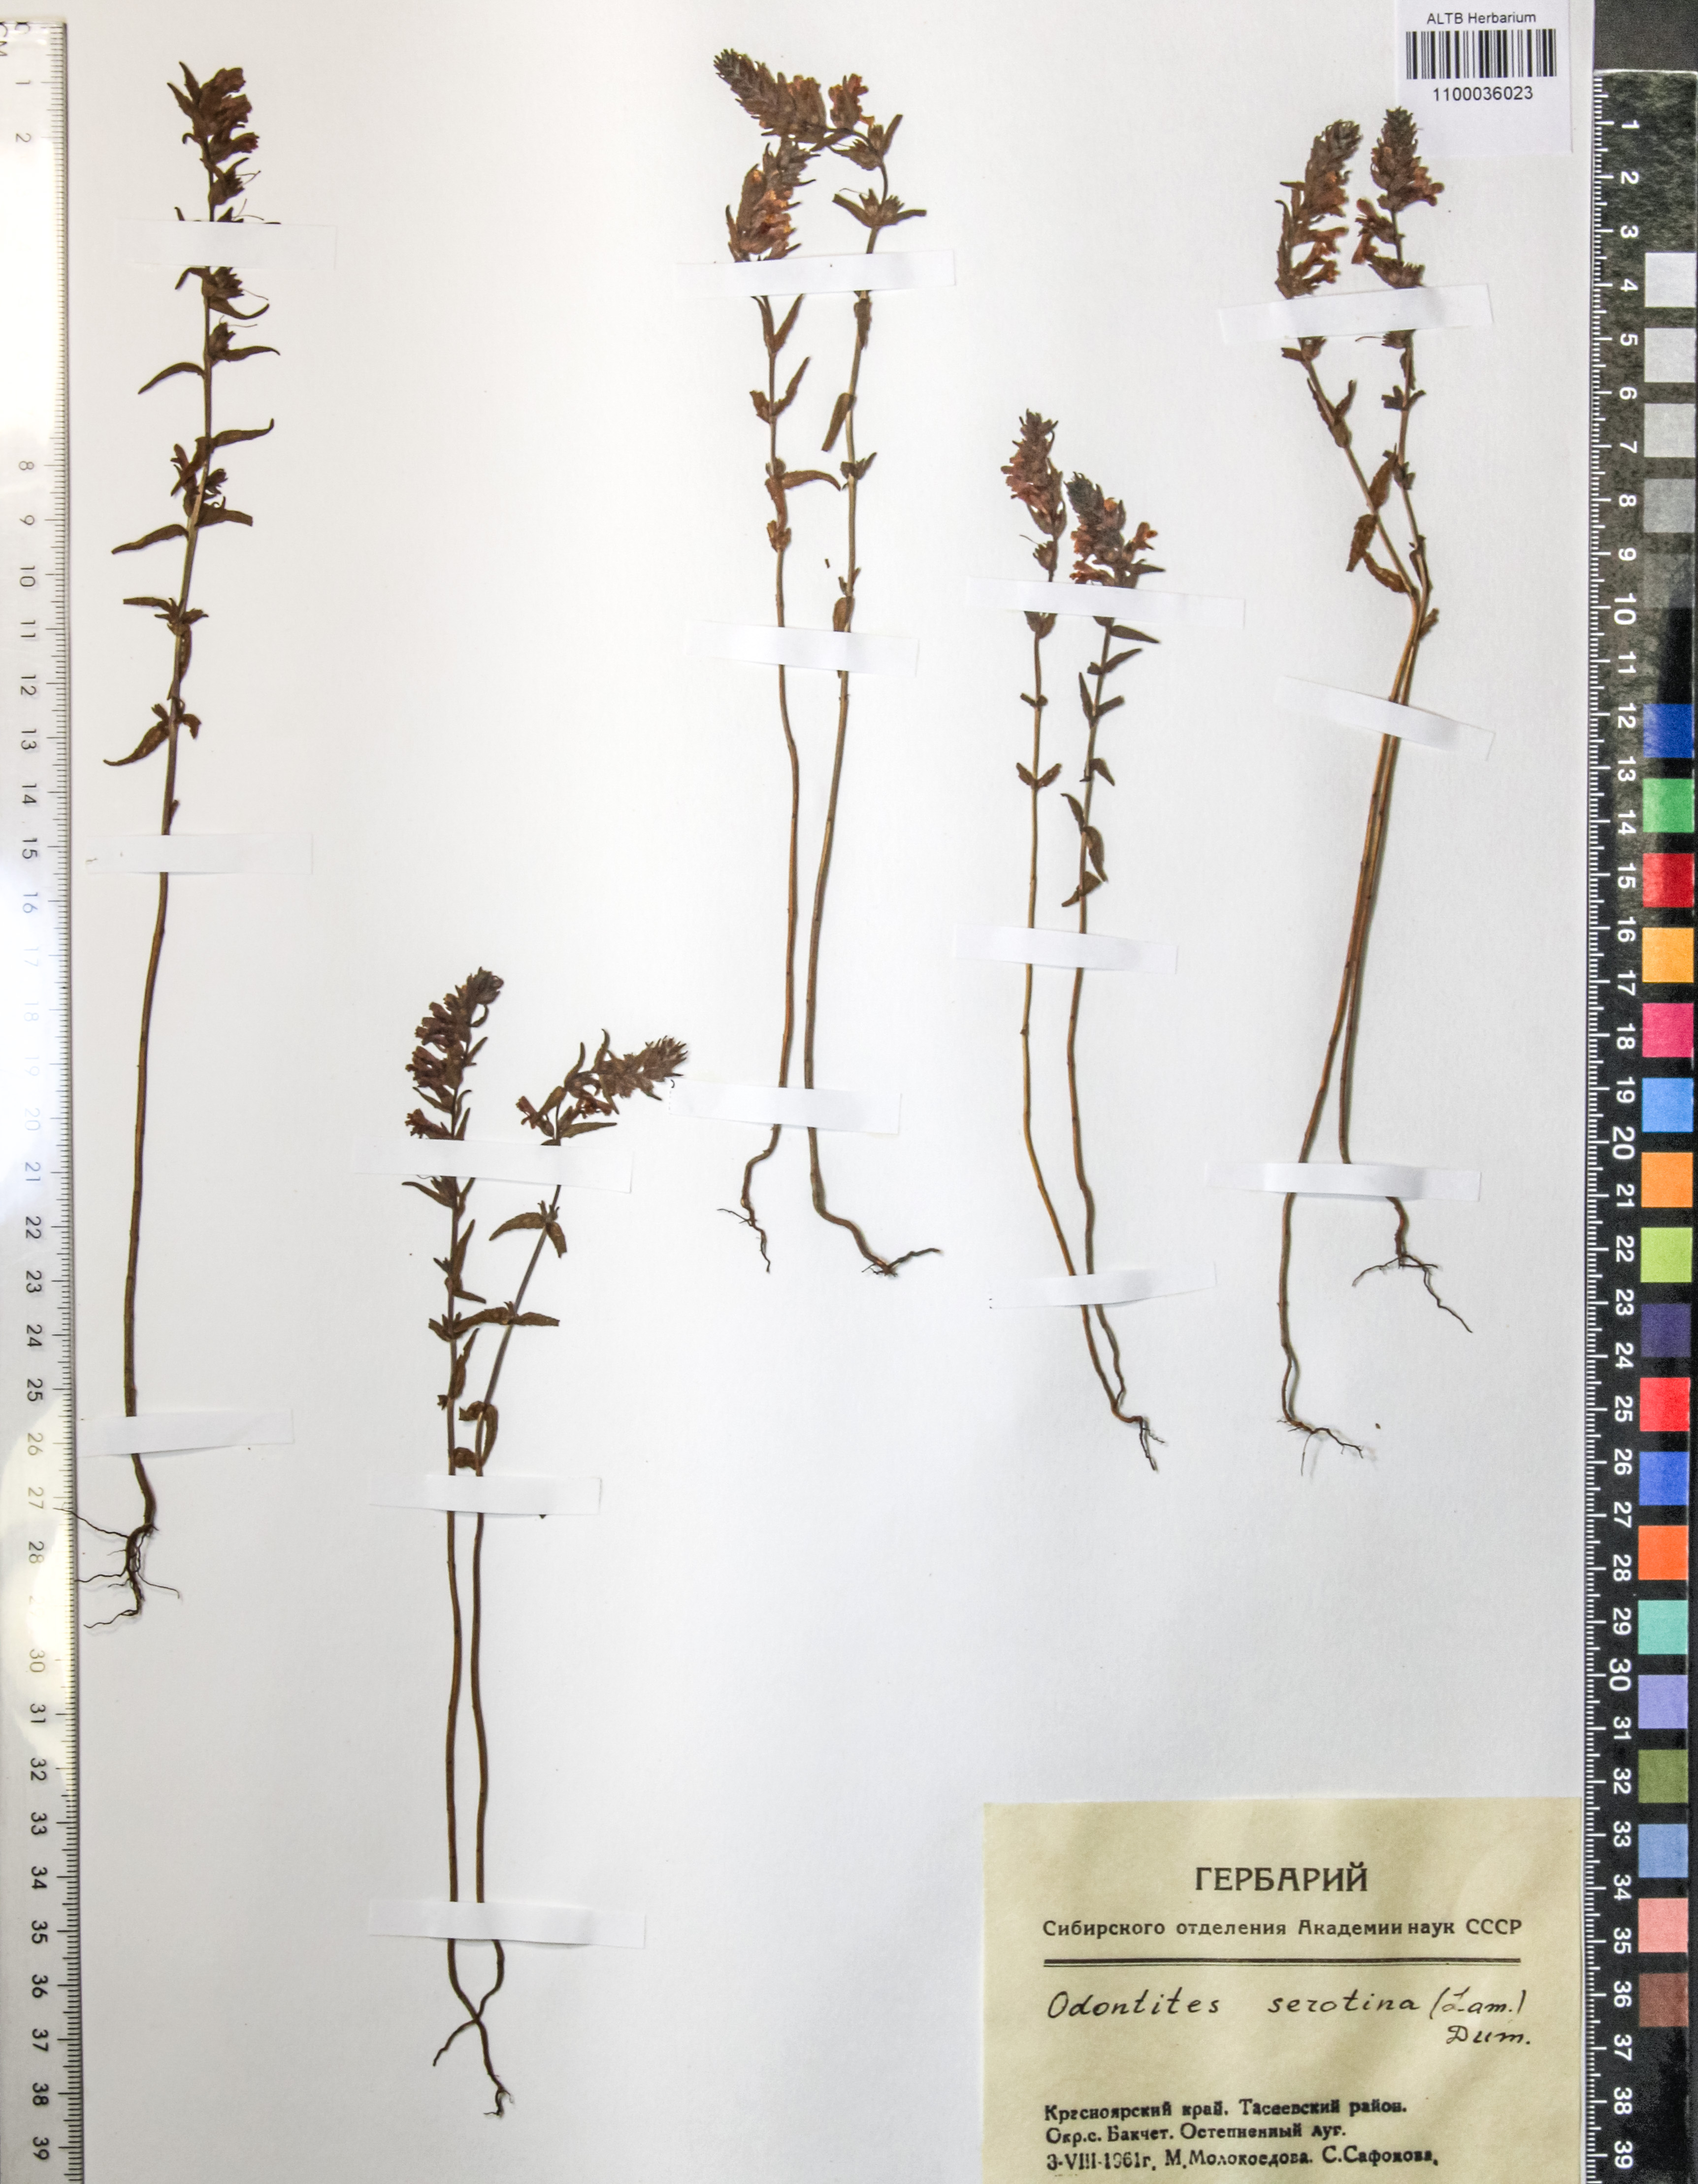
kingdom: Plantae
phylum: Tracheophyta
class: Magnoliopsida
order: Lamiales
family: Orobanchaceae
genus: Odontites
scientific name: Odontites vulgaris
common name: Broomrape
